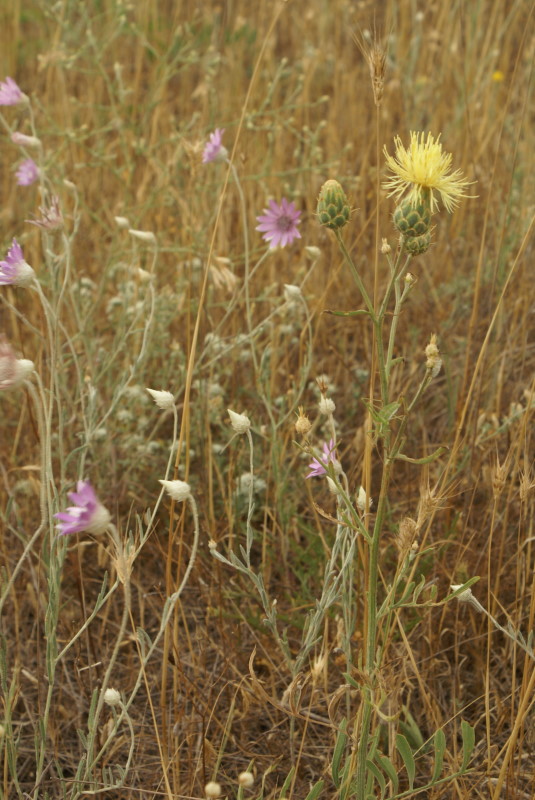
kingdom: Plantae
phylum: Tracheophyta
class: Magnoliopsida
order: Asterales
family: Asteraceae
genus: Centaurea
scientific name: Centaurea solstitialis
